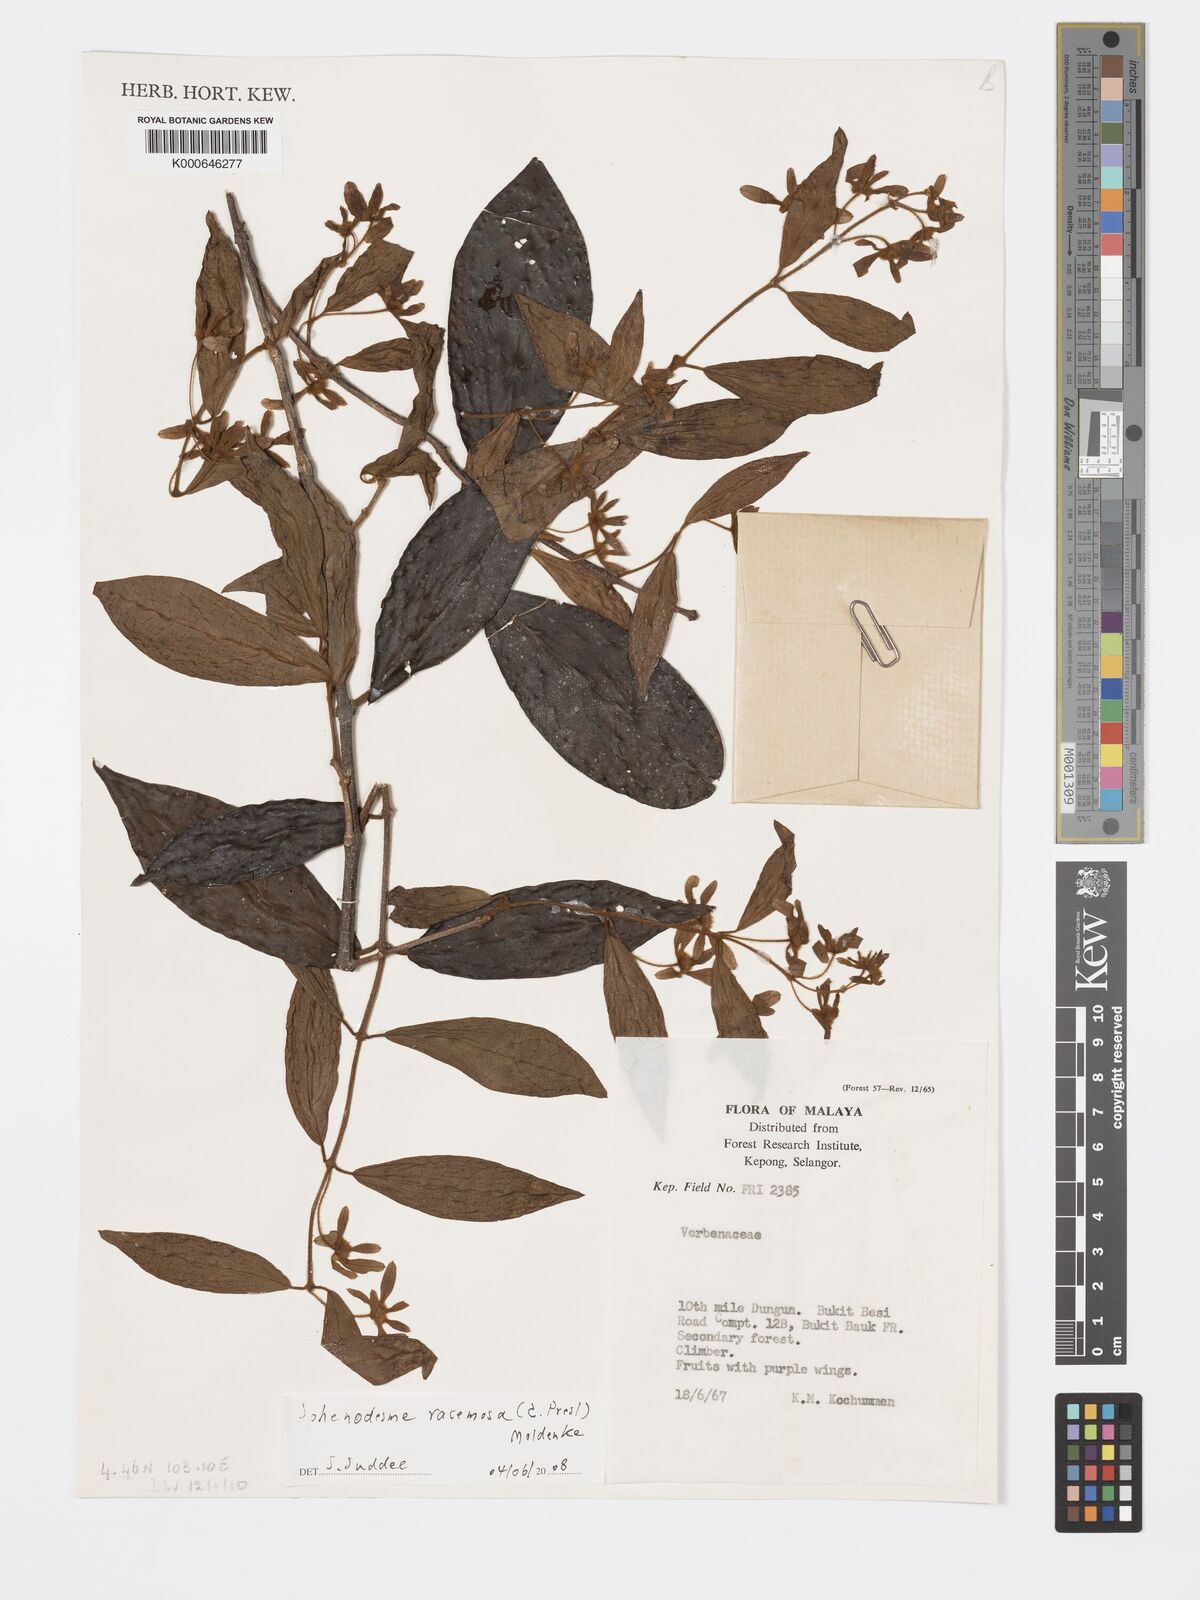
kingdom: Plantae
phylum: Tracheophyta
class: Magnoliopsida
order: Lamiales
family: Lamiaceae
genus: Sphenodesme
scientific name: Sphenodesme racemosa
